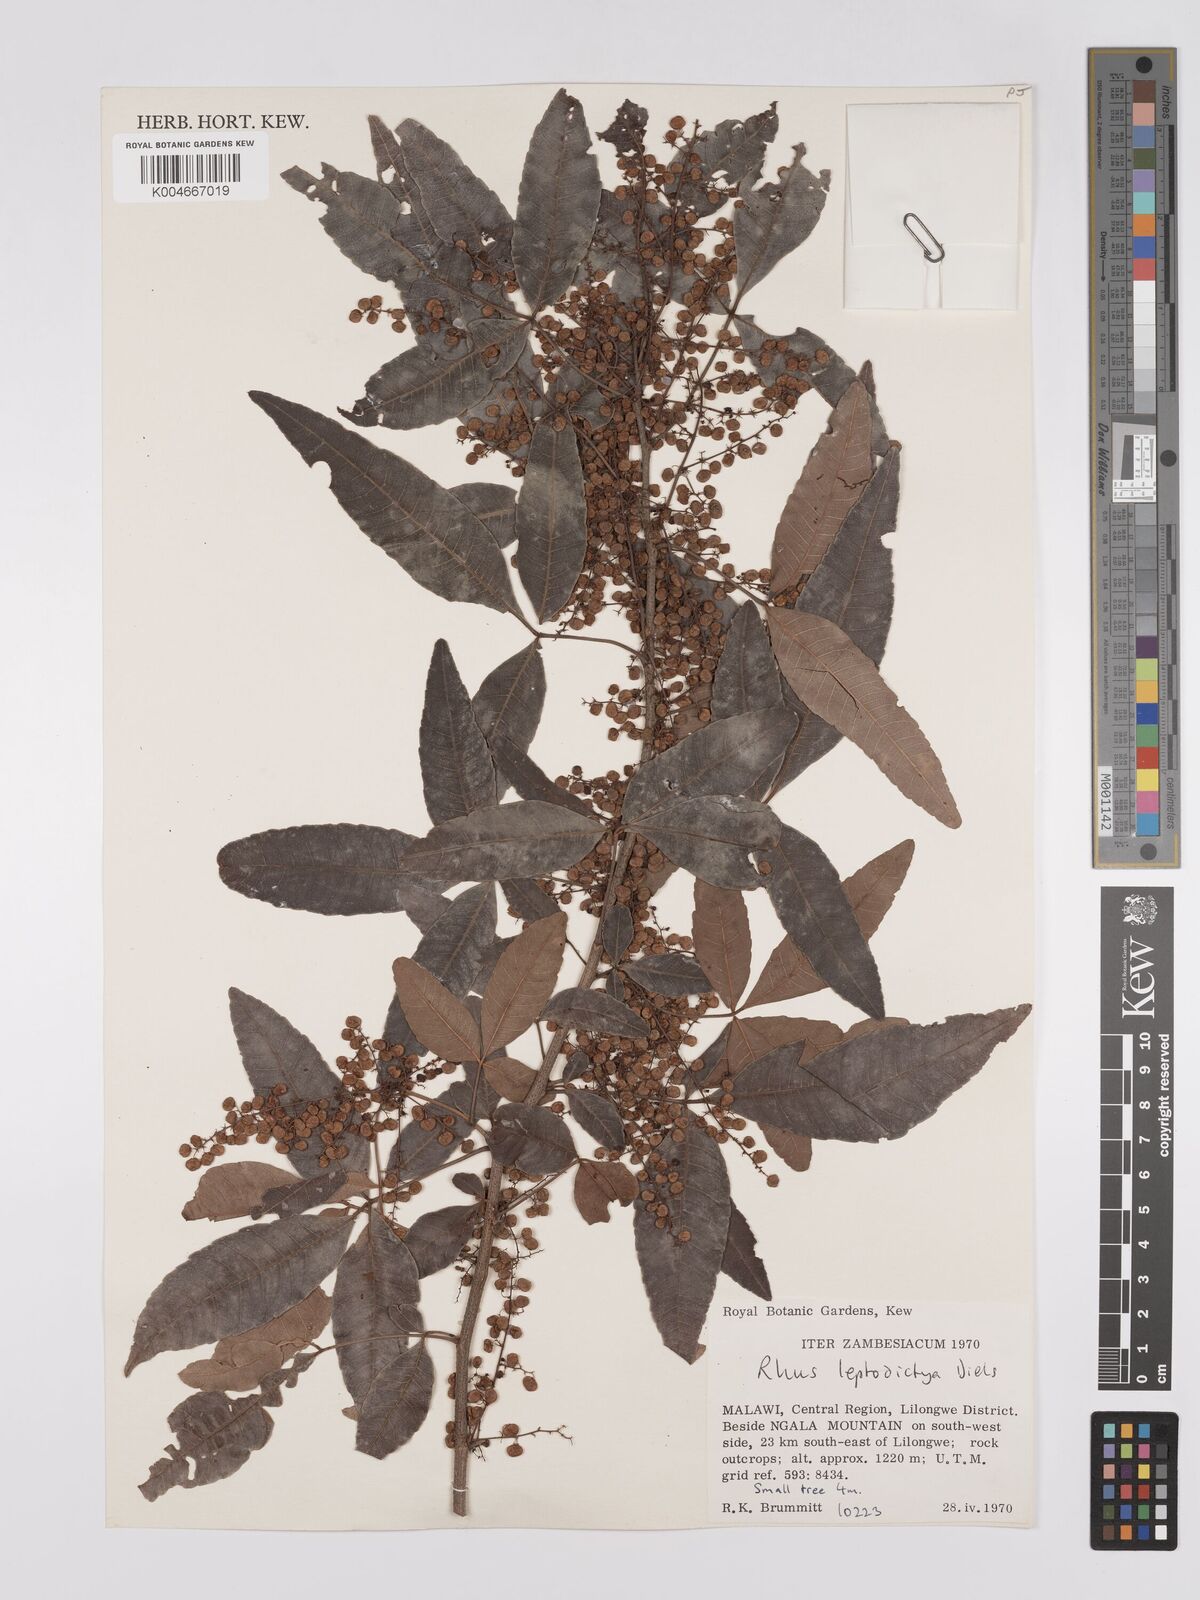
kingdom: Plantae
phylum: Tracheophyta
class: Magnoliopsida
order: Sapindales
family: Anacardiaceae
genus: Searsia
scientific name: Searsia leptodictya
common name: Mountain karee
